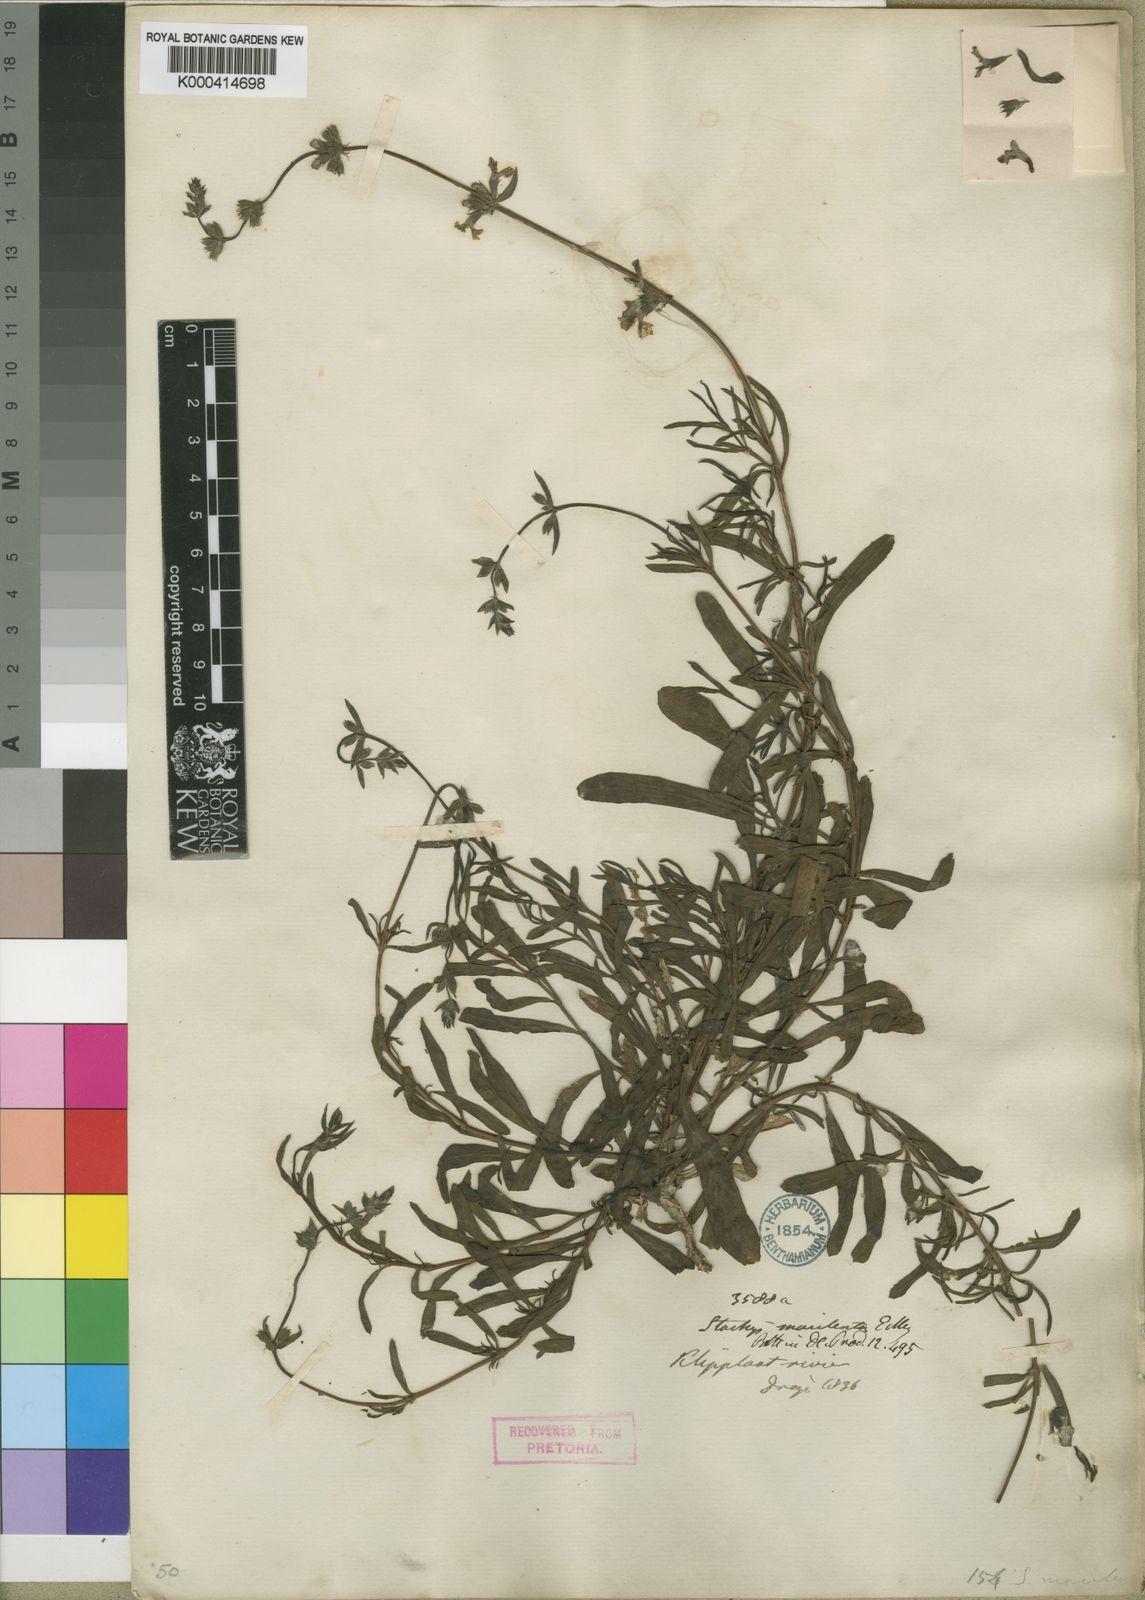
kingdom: Plantae
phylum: Tracheophyta
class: Magnoliopsida
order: Lamiales
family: Lamiaceae
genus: Stachys
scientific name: Stachys hyssopoides
